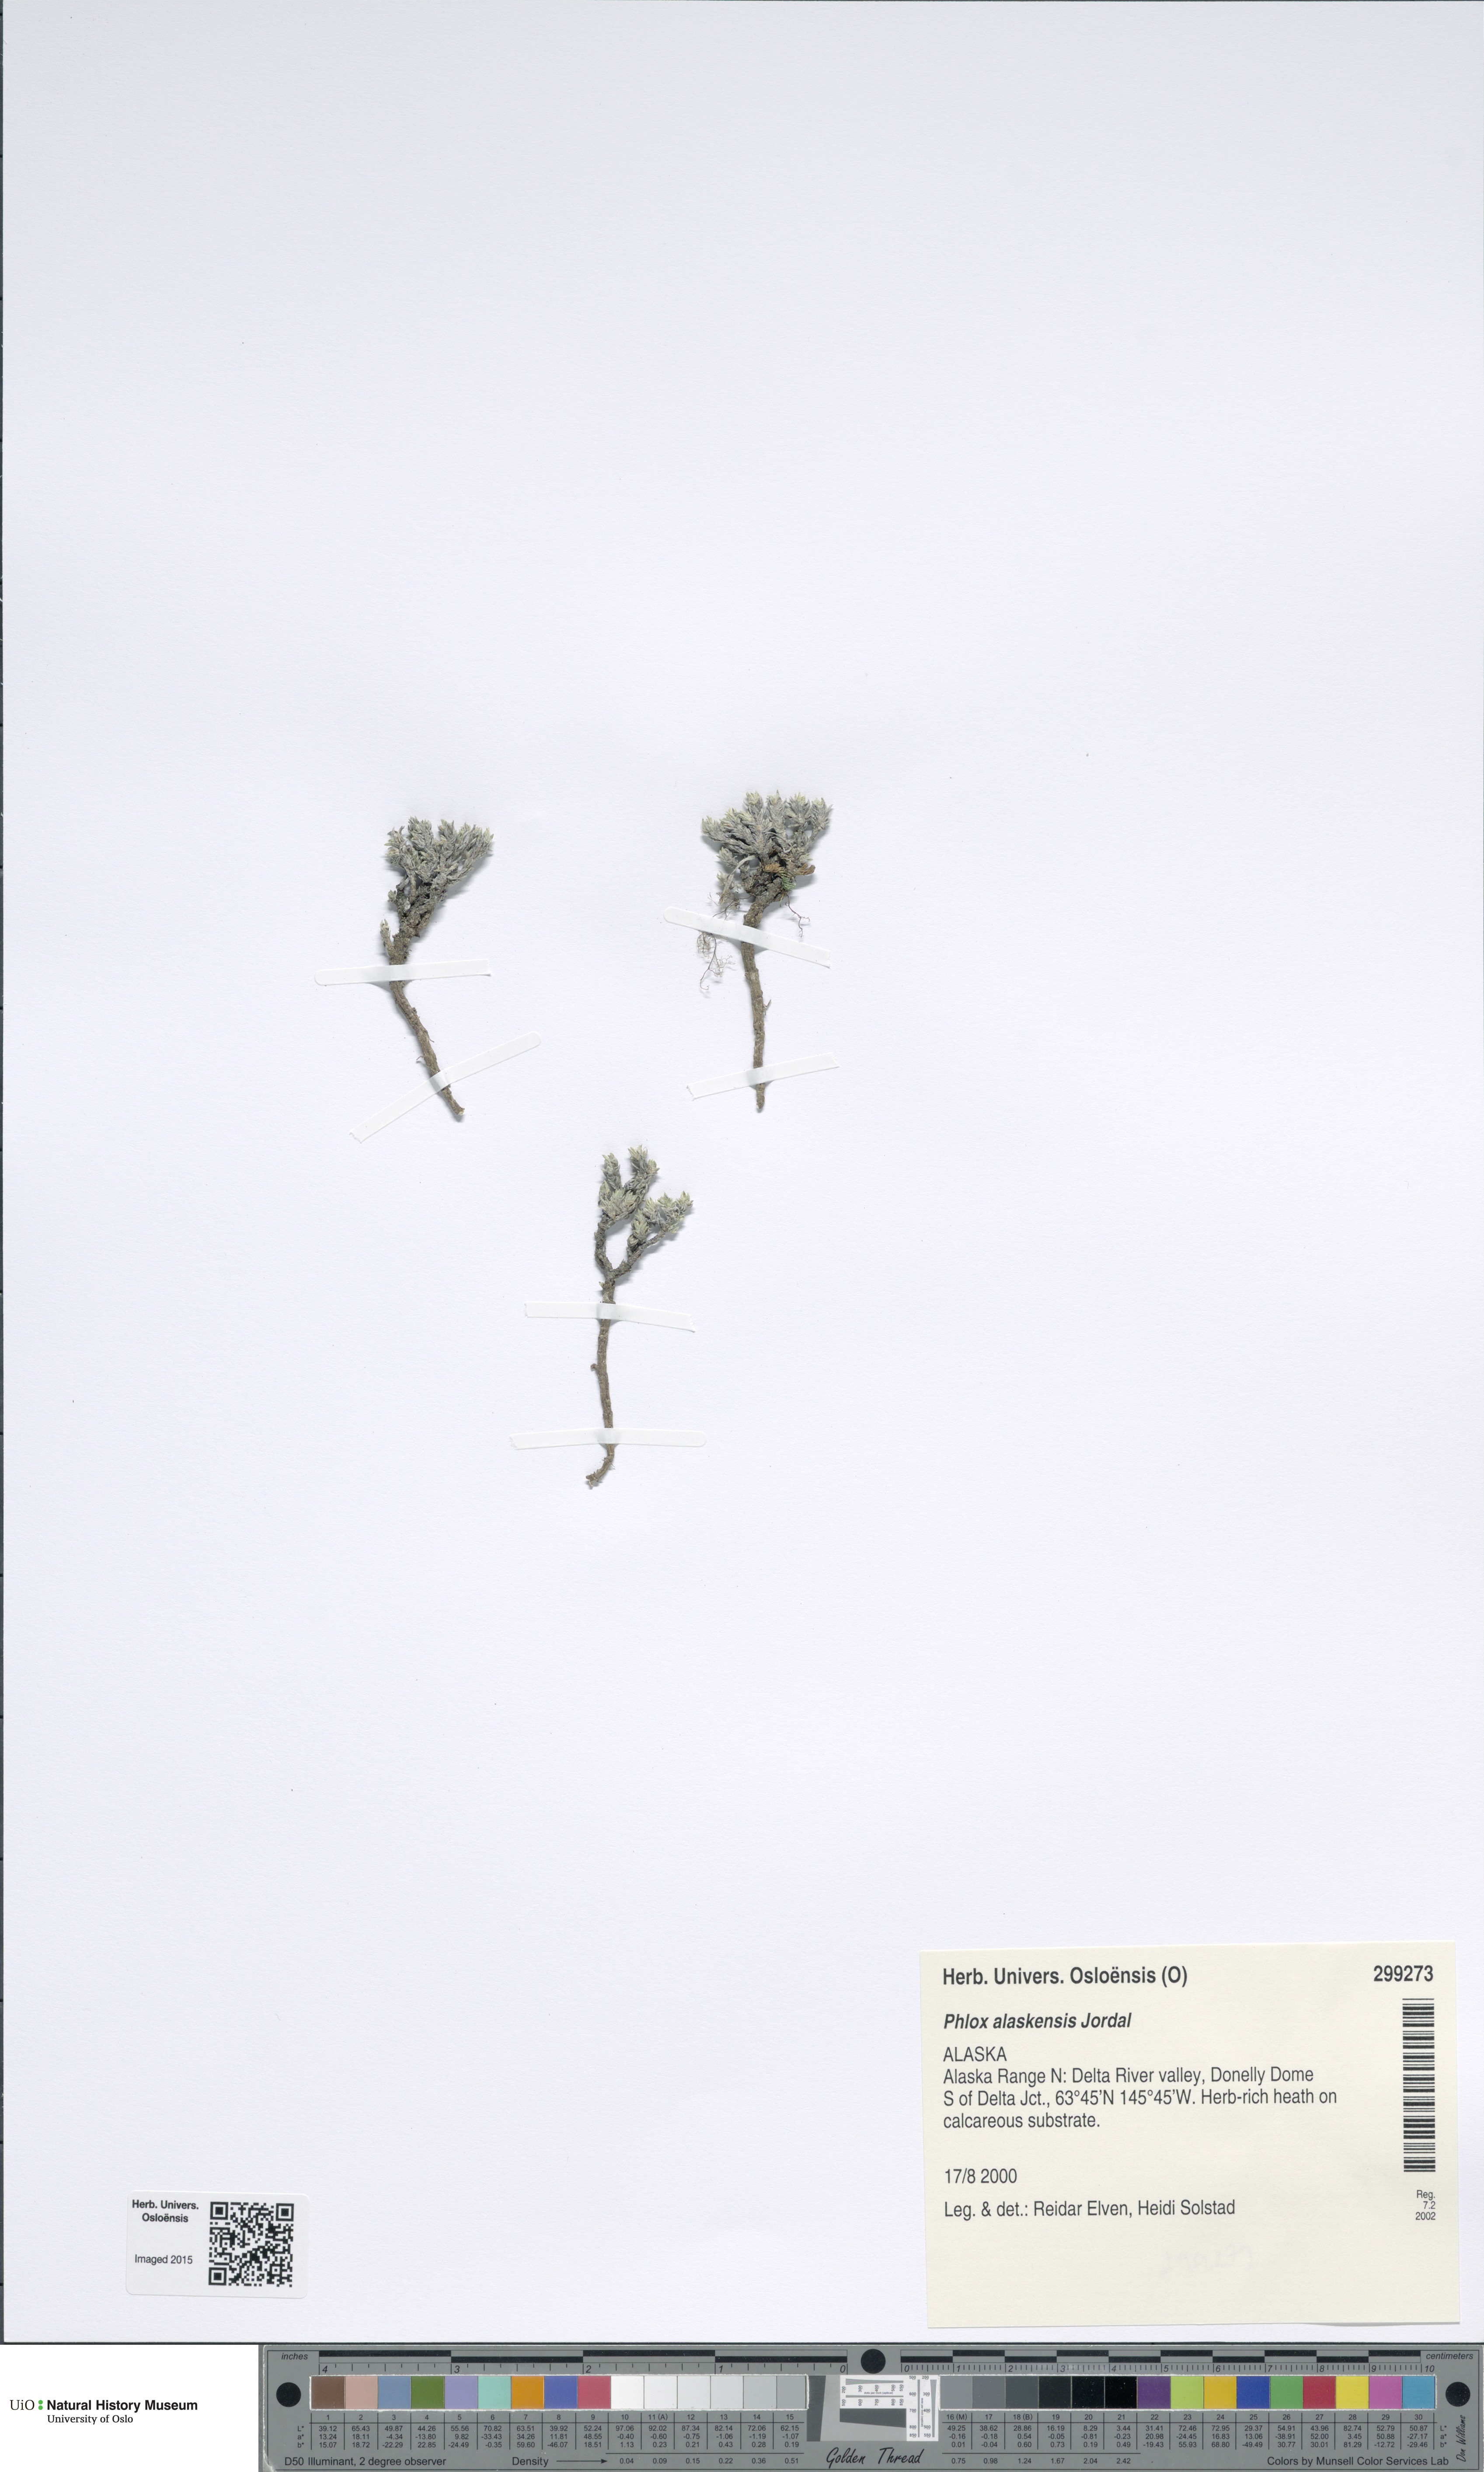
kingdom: Plantae
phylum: Tracheophyta
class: Magnoliopsida
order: Ericales
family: Polemoniaceae
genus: Phlox
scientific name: Phlox richardsonii
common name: Richardson's phlox
